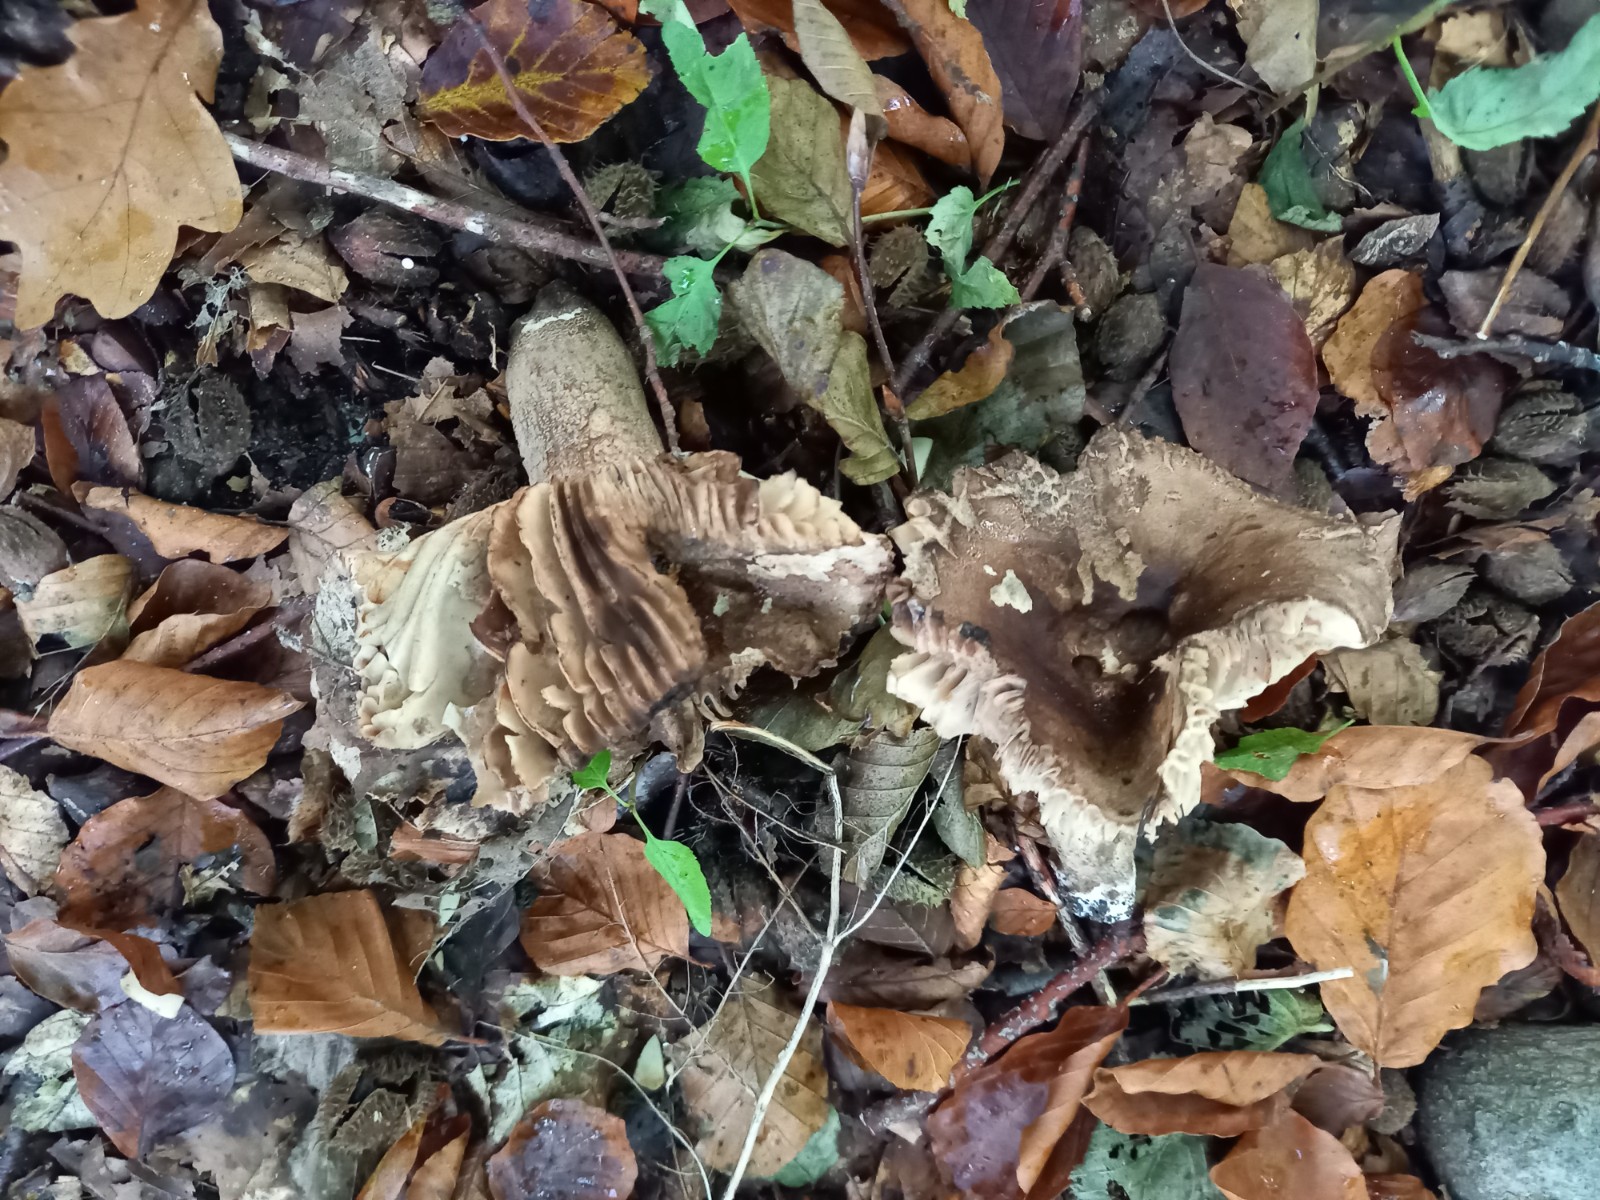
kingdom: Fungi
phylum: Basidiomycota
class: Agaricomycetes
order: Russulales
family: Russulaceae
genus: Russula
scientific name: Russula adusta
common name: sværtende skørhat
